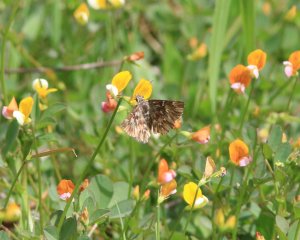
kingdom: Animalia
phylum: Arthropoda
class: Insecta
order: Lepidoptera
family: Hesperiidae
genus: Celotes
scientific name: Celotes nessus
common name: Common Streaky-Skipper
